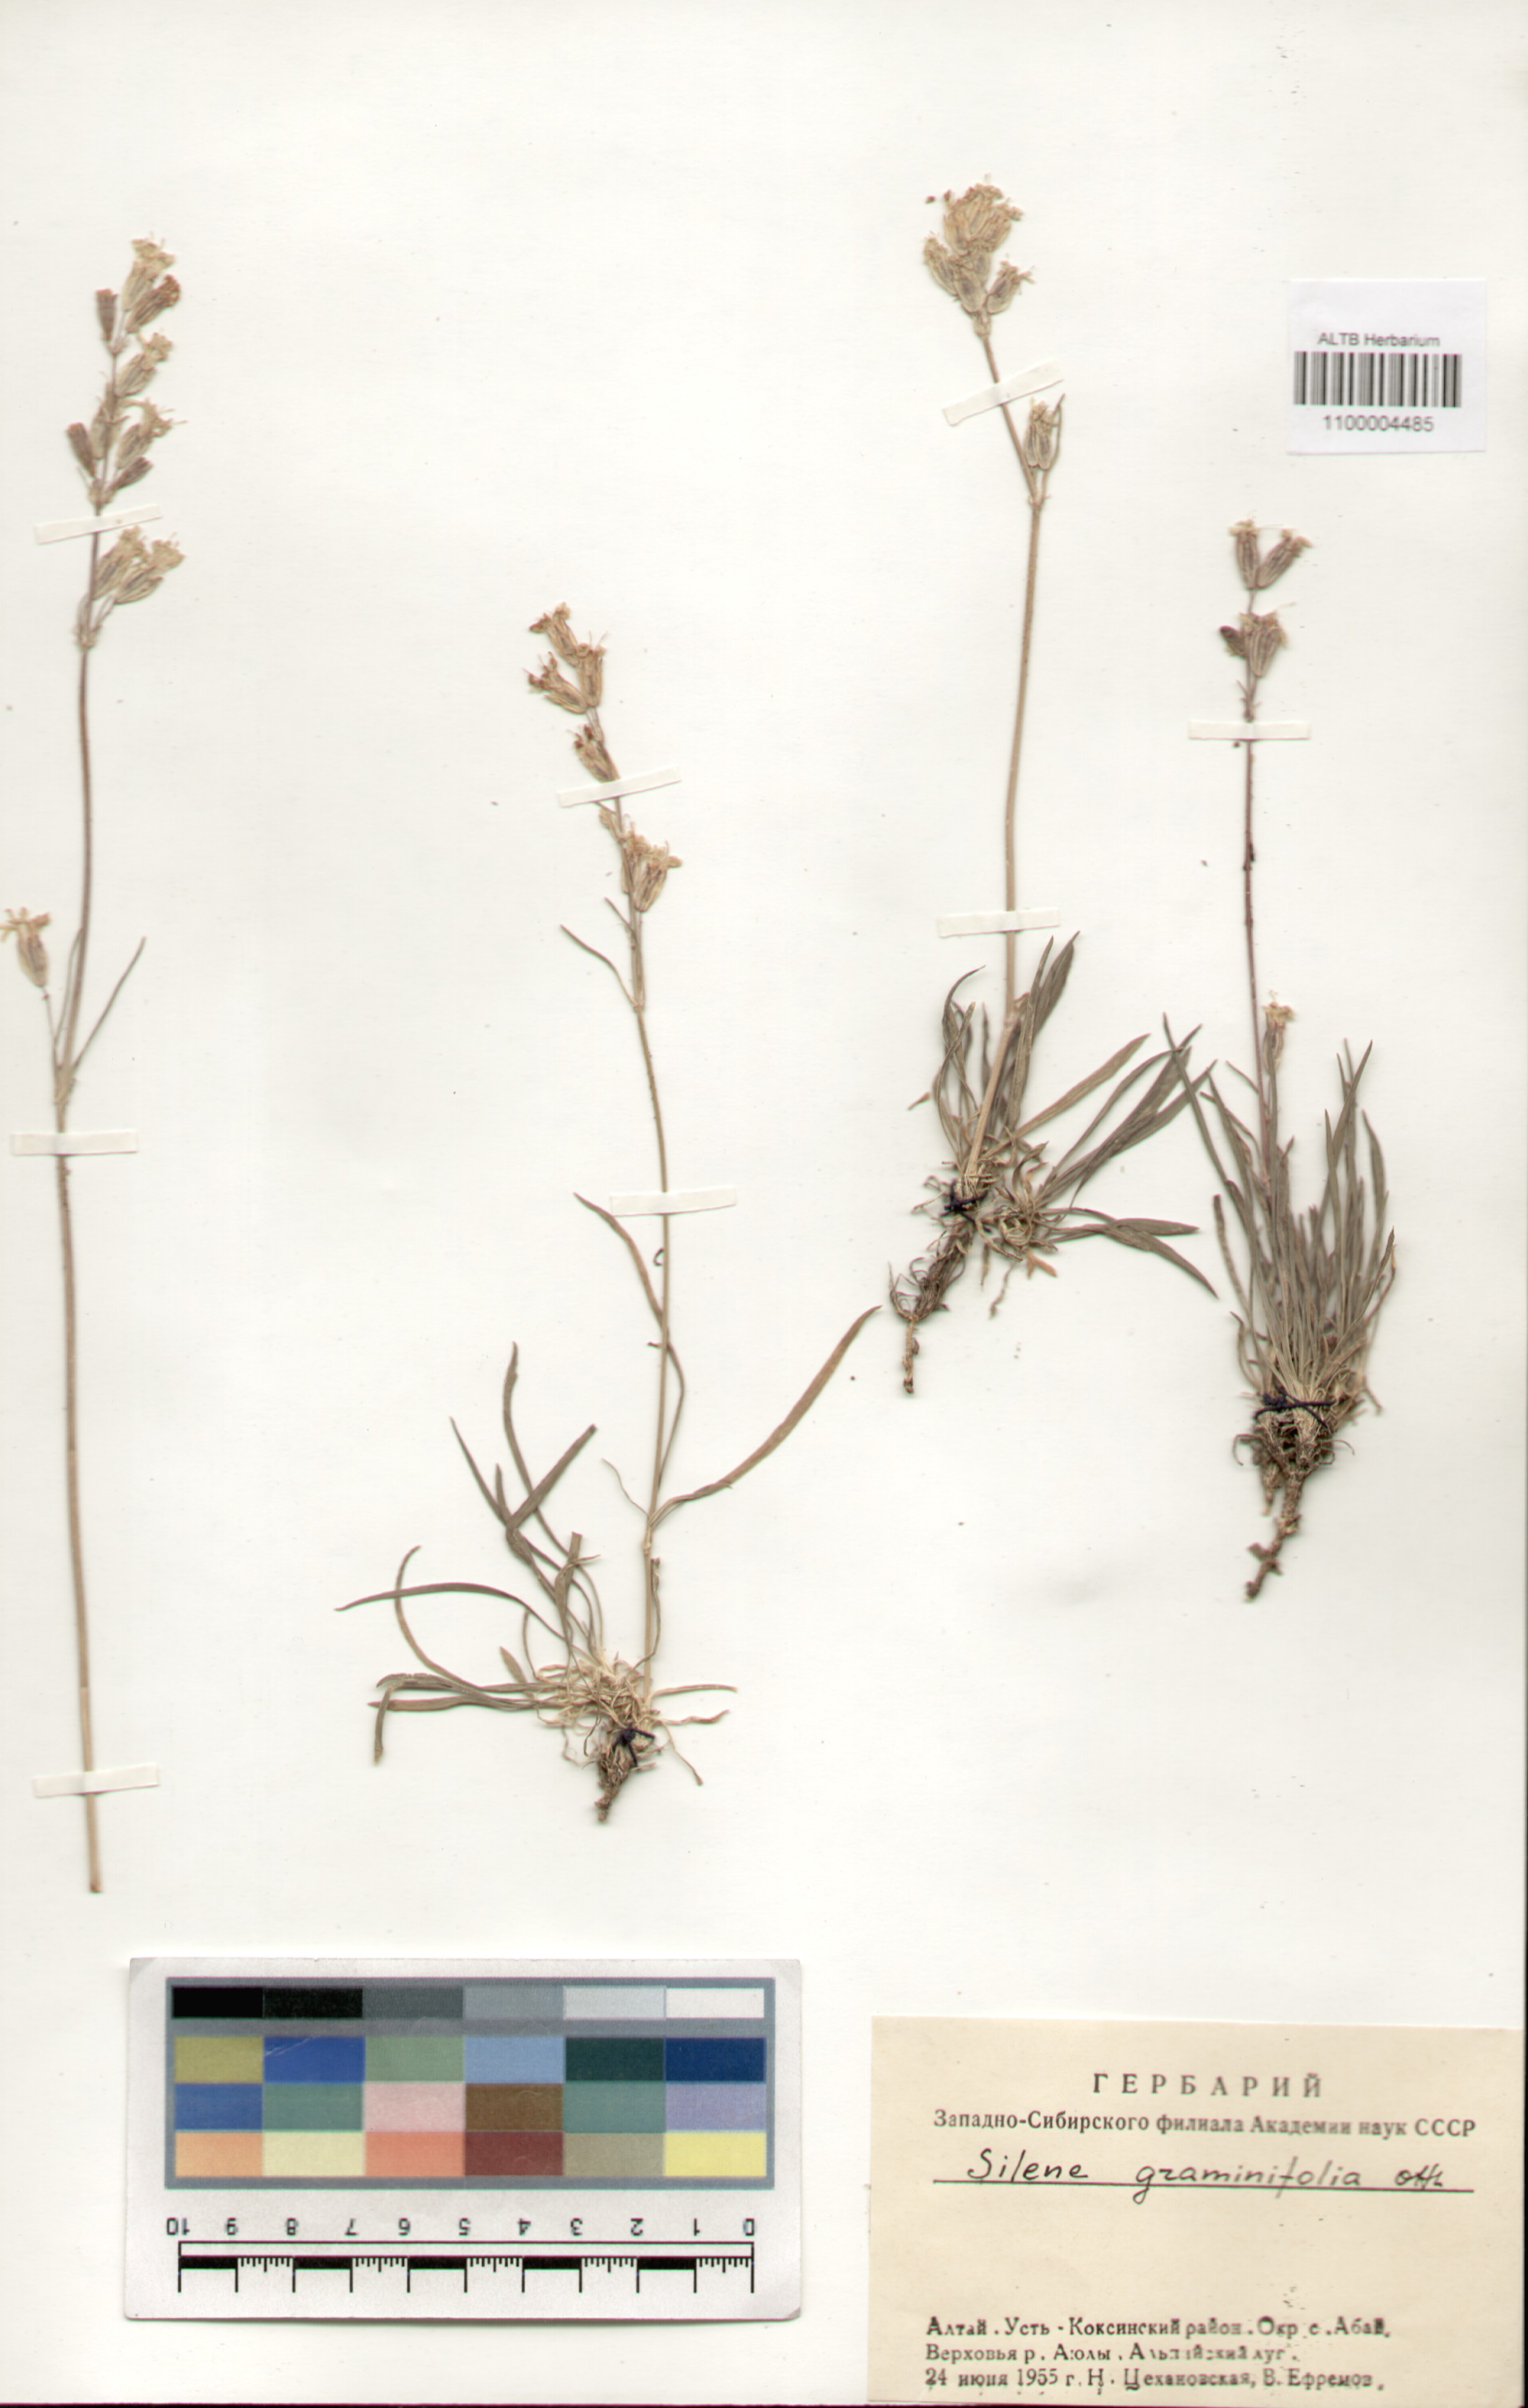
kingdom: Plantae
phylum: Tracheophyta
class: Magnoliopsida
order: Caryophyllales
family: Caryophyllaceae
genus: Silene
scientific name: Silene graminifolia
